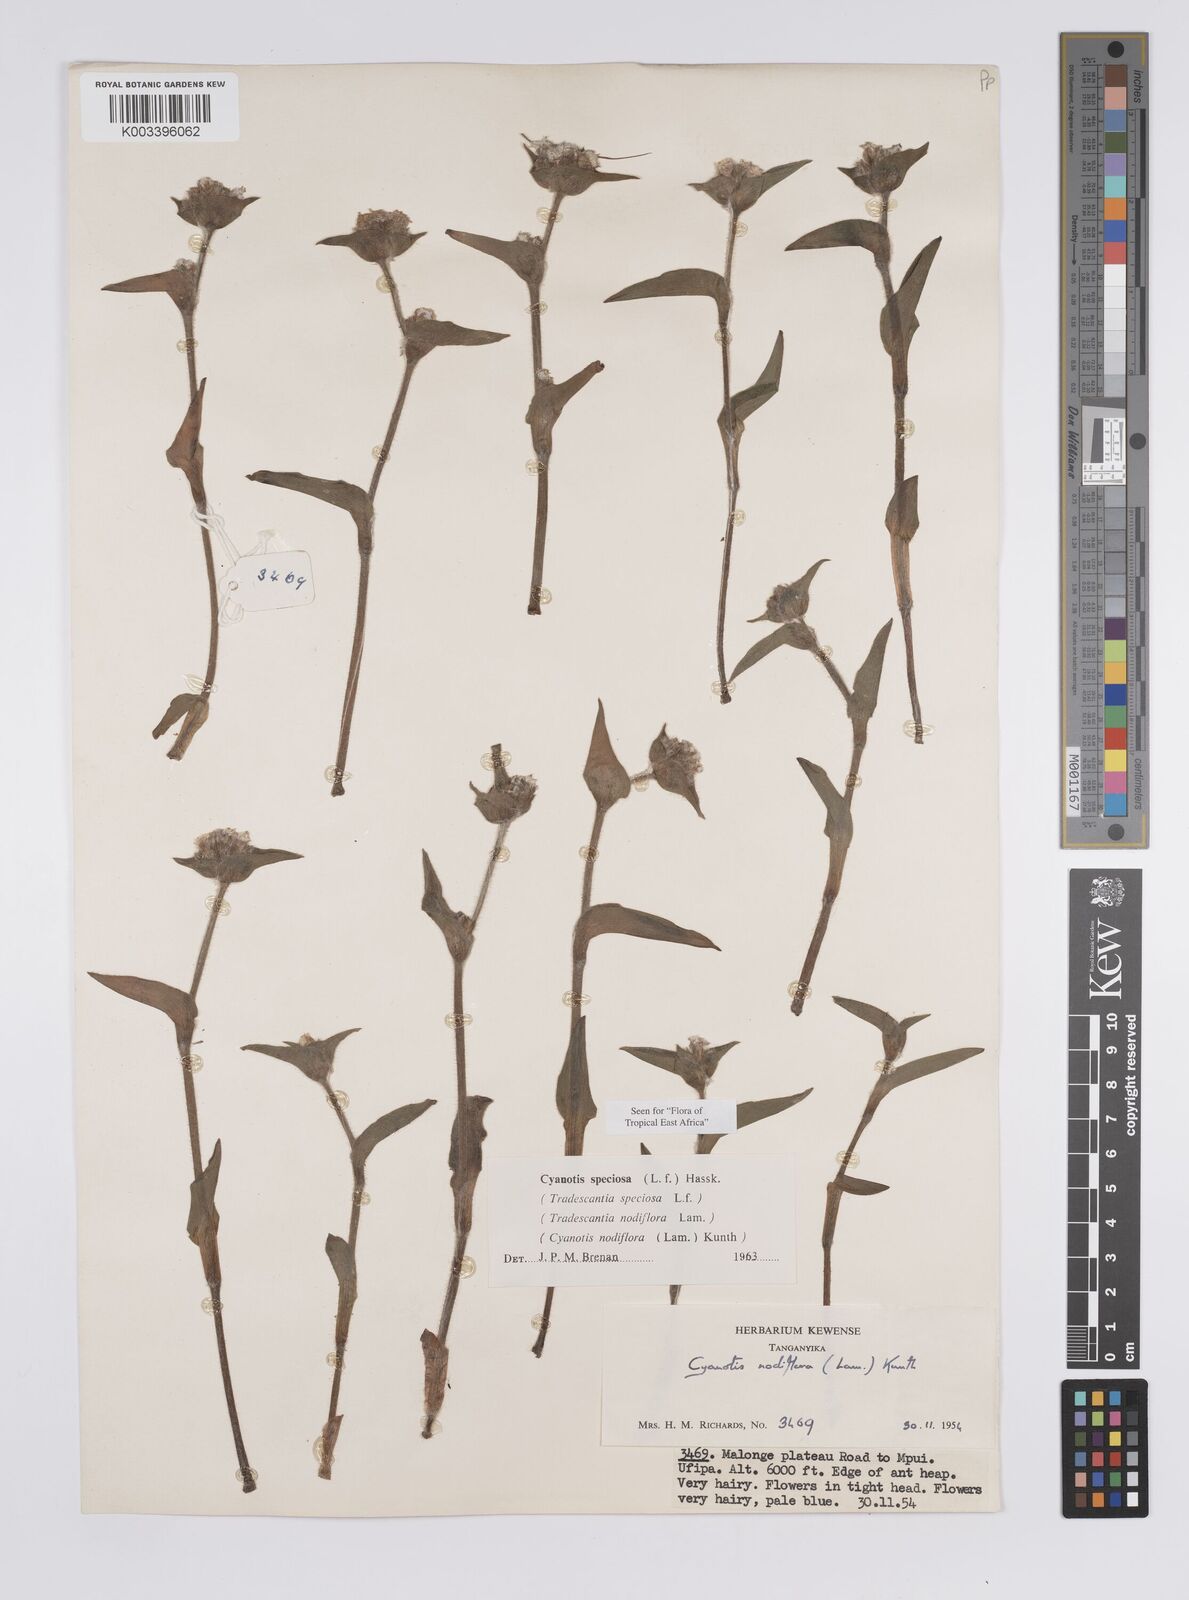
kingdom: Plantae
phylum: Tracheophyta
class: Liliopsida
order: Commelinales
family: Commelinaceae
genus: Cyanotis
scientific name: Cyanotis speciosa
